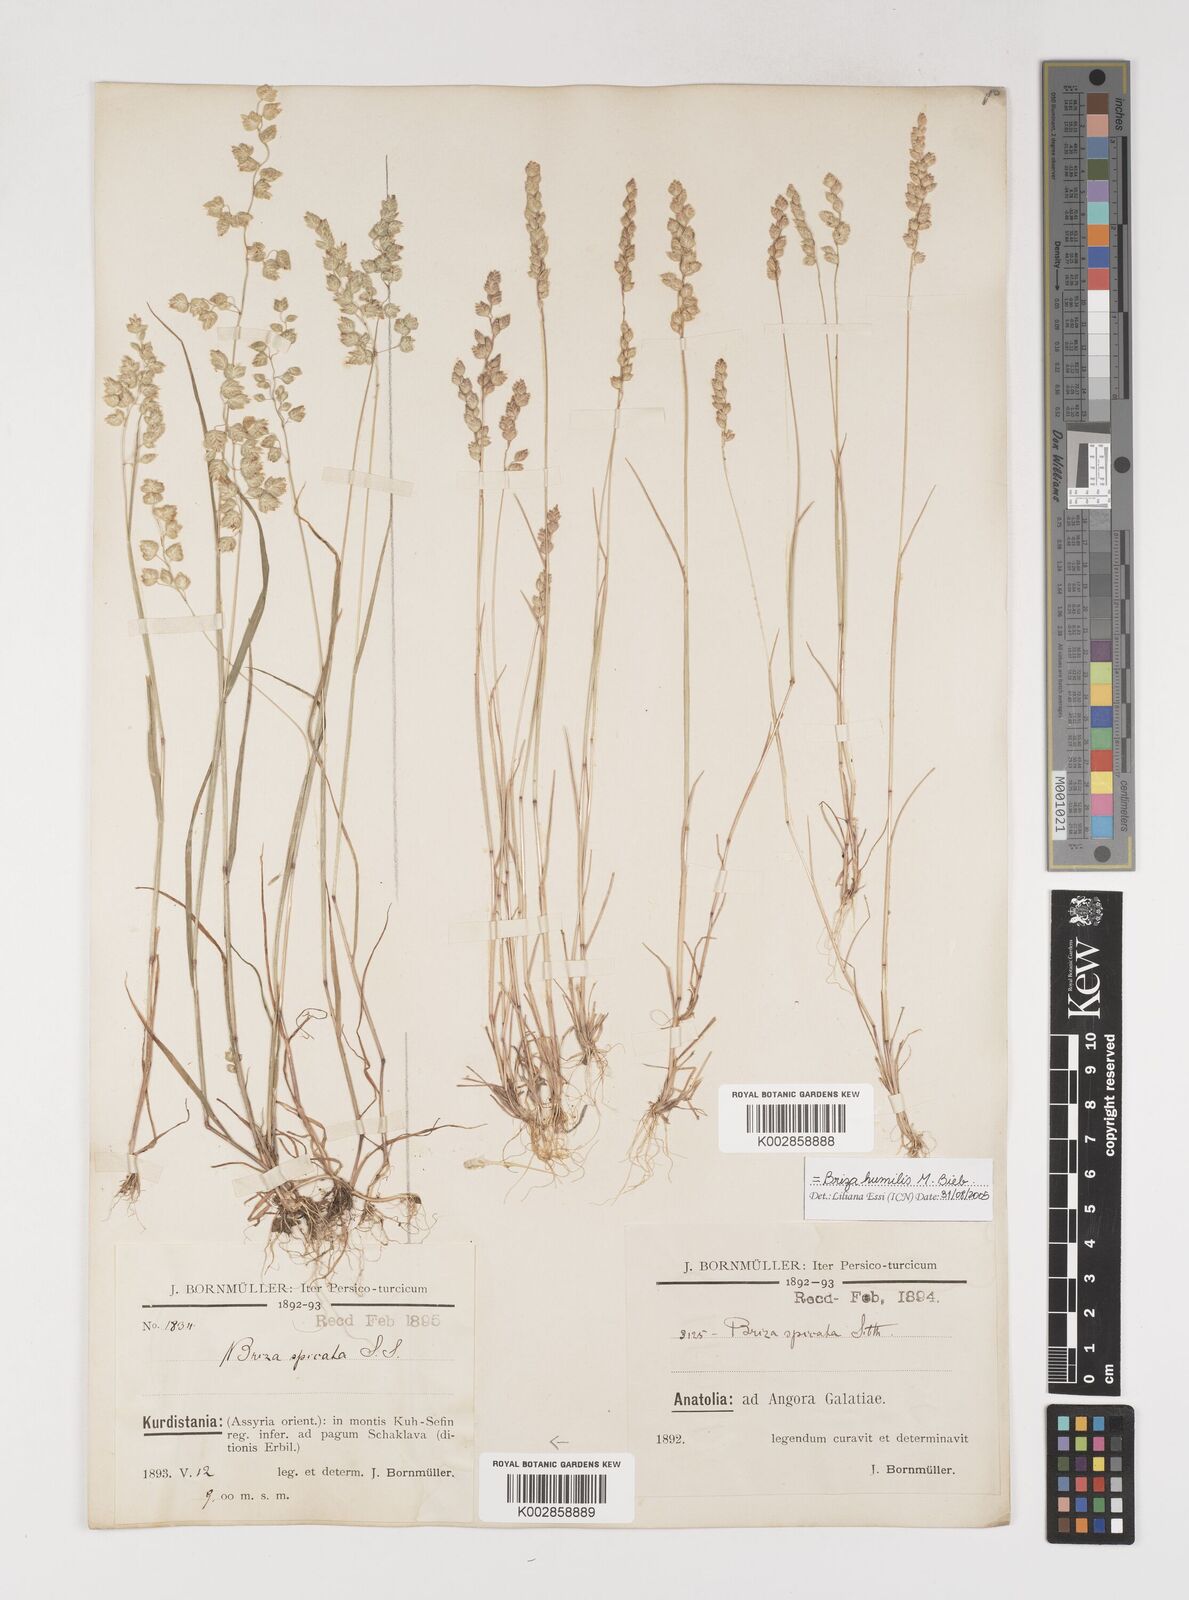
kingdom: Plantae
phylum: Tracheophyta
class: Liliopsida
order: Poales
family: Poaceae
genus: Briza
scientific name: Briza humilis
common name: Spiked quaking grass
